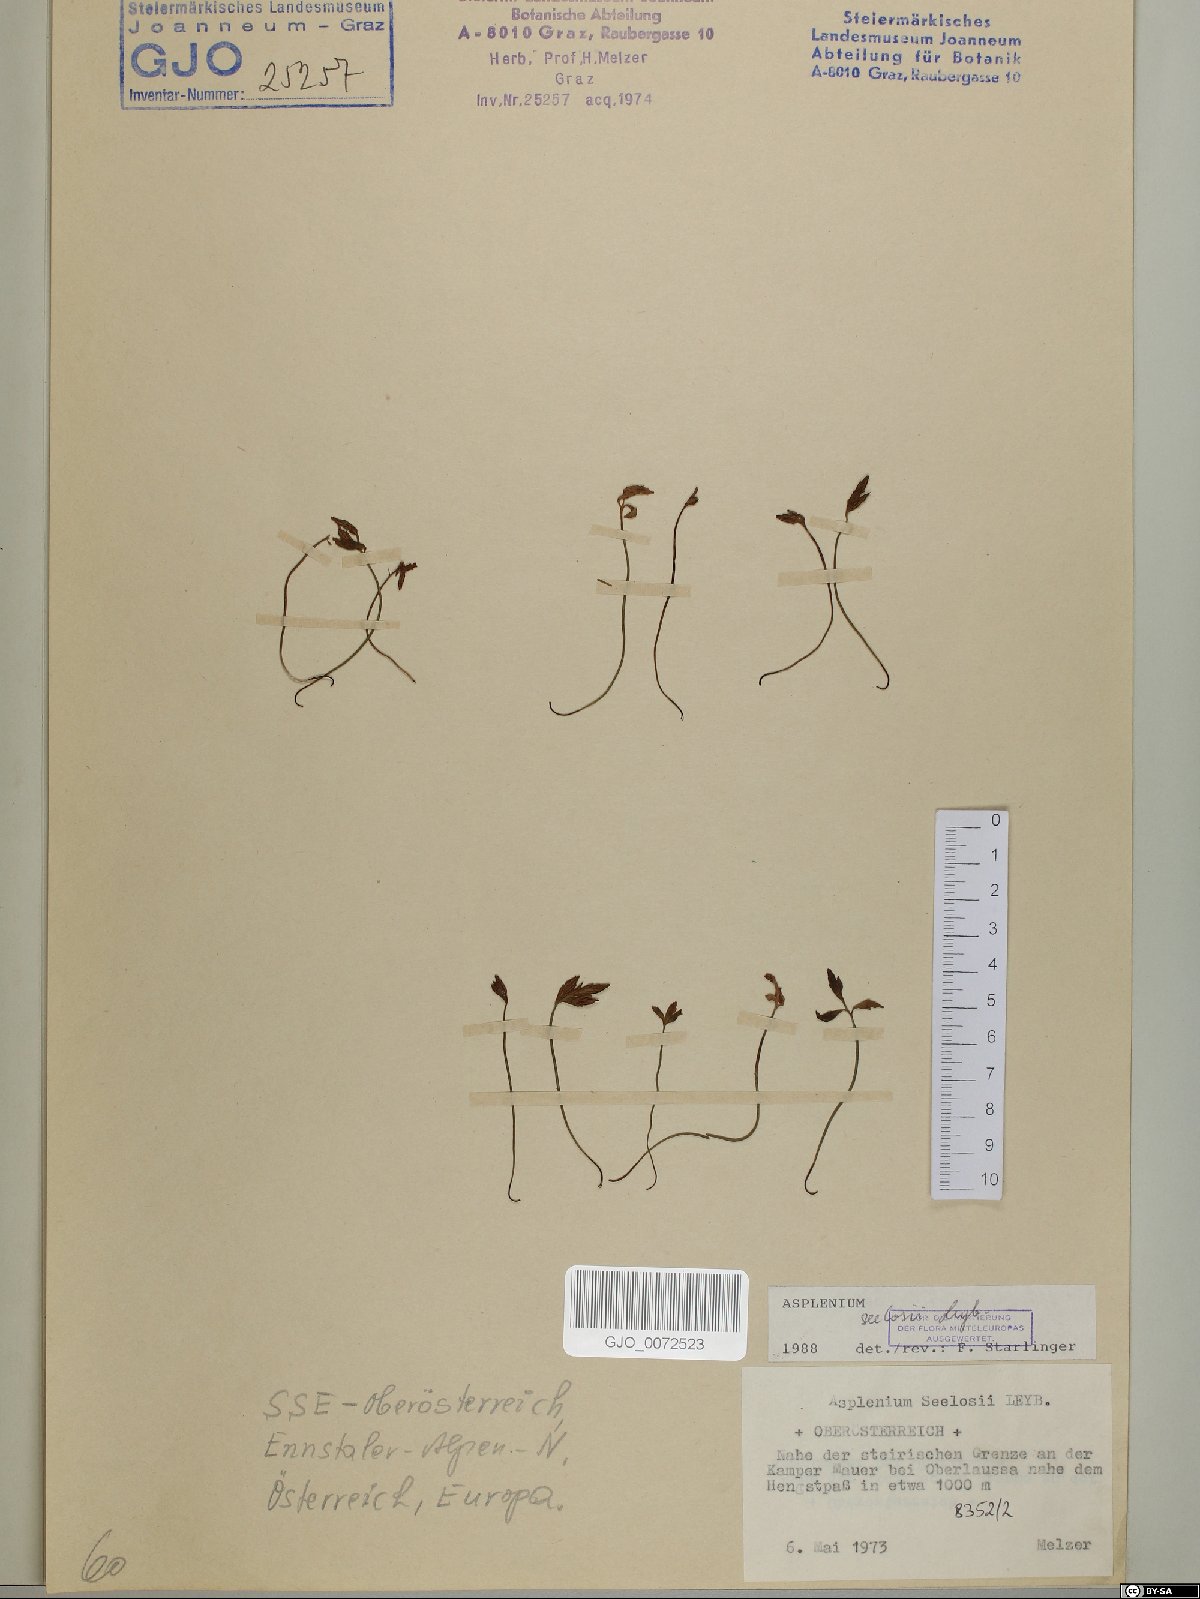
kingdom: Plantae
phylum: Tracheophyta
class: Polypodiopsida
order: Polypodiales
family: Aspleniaceae
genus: Asplenium
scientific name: Asplenium seelosii
